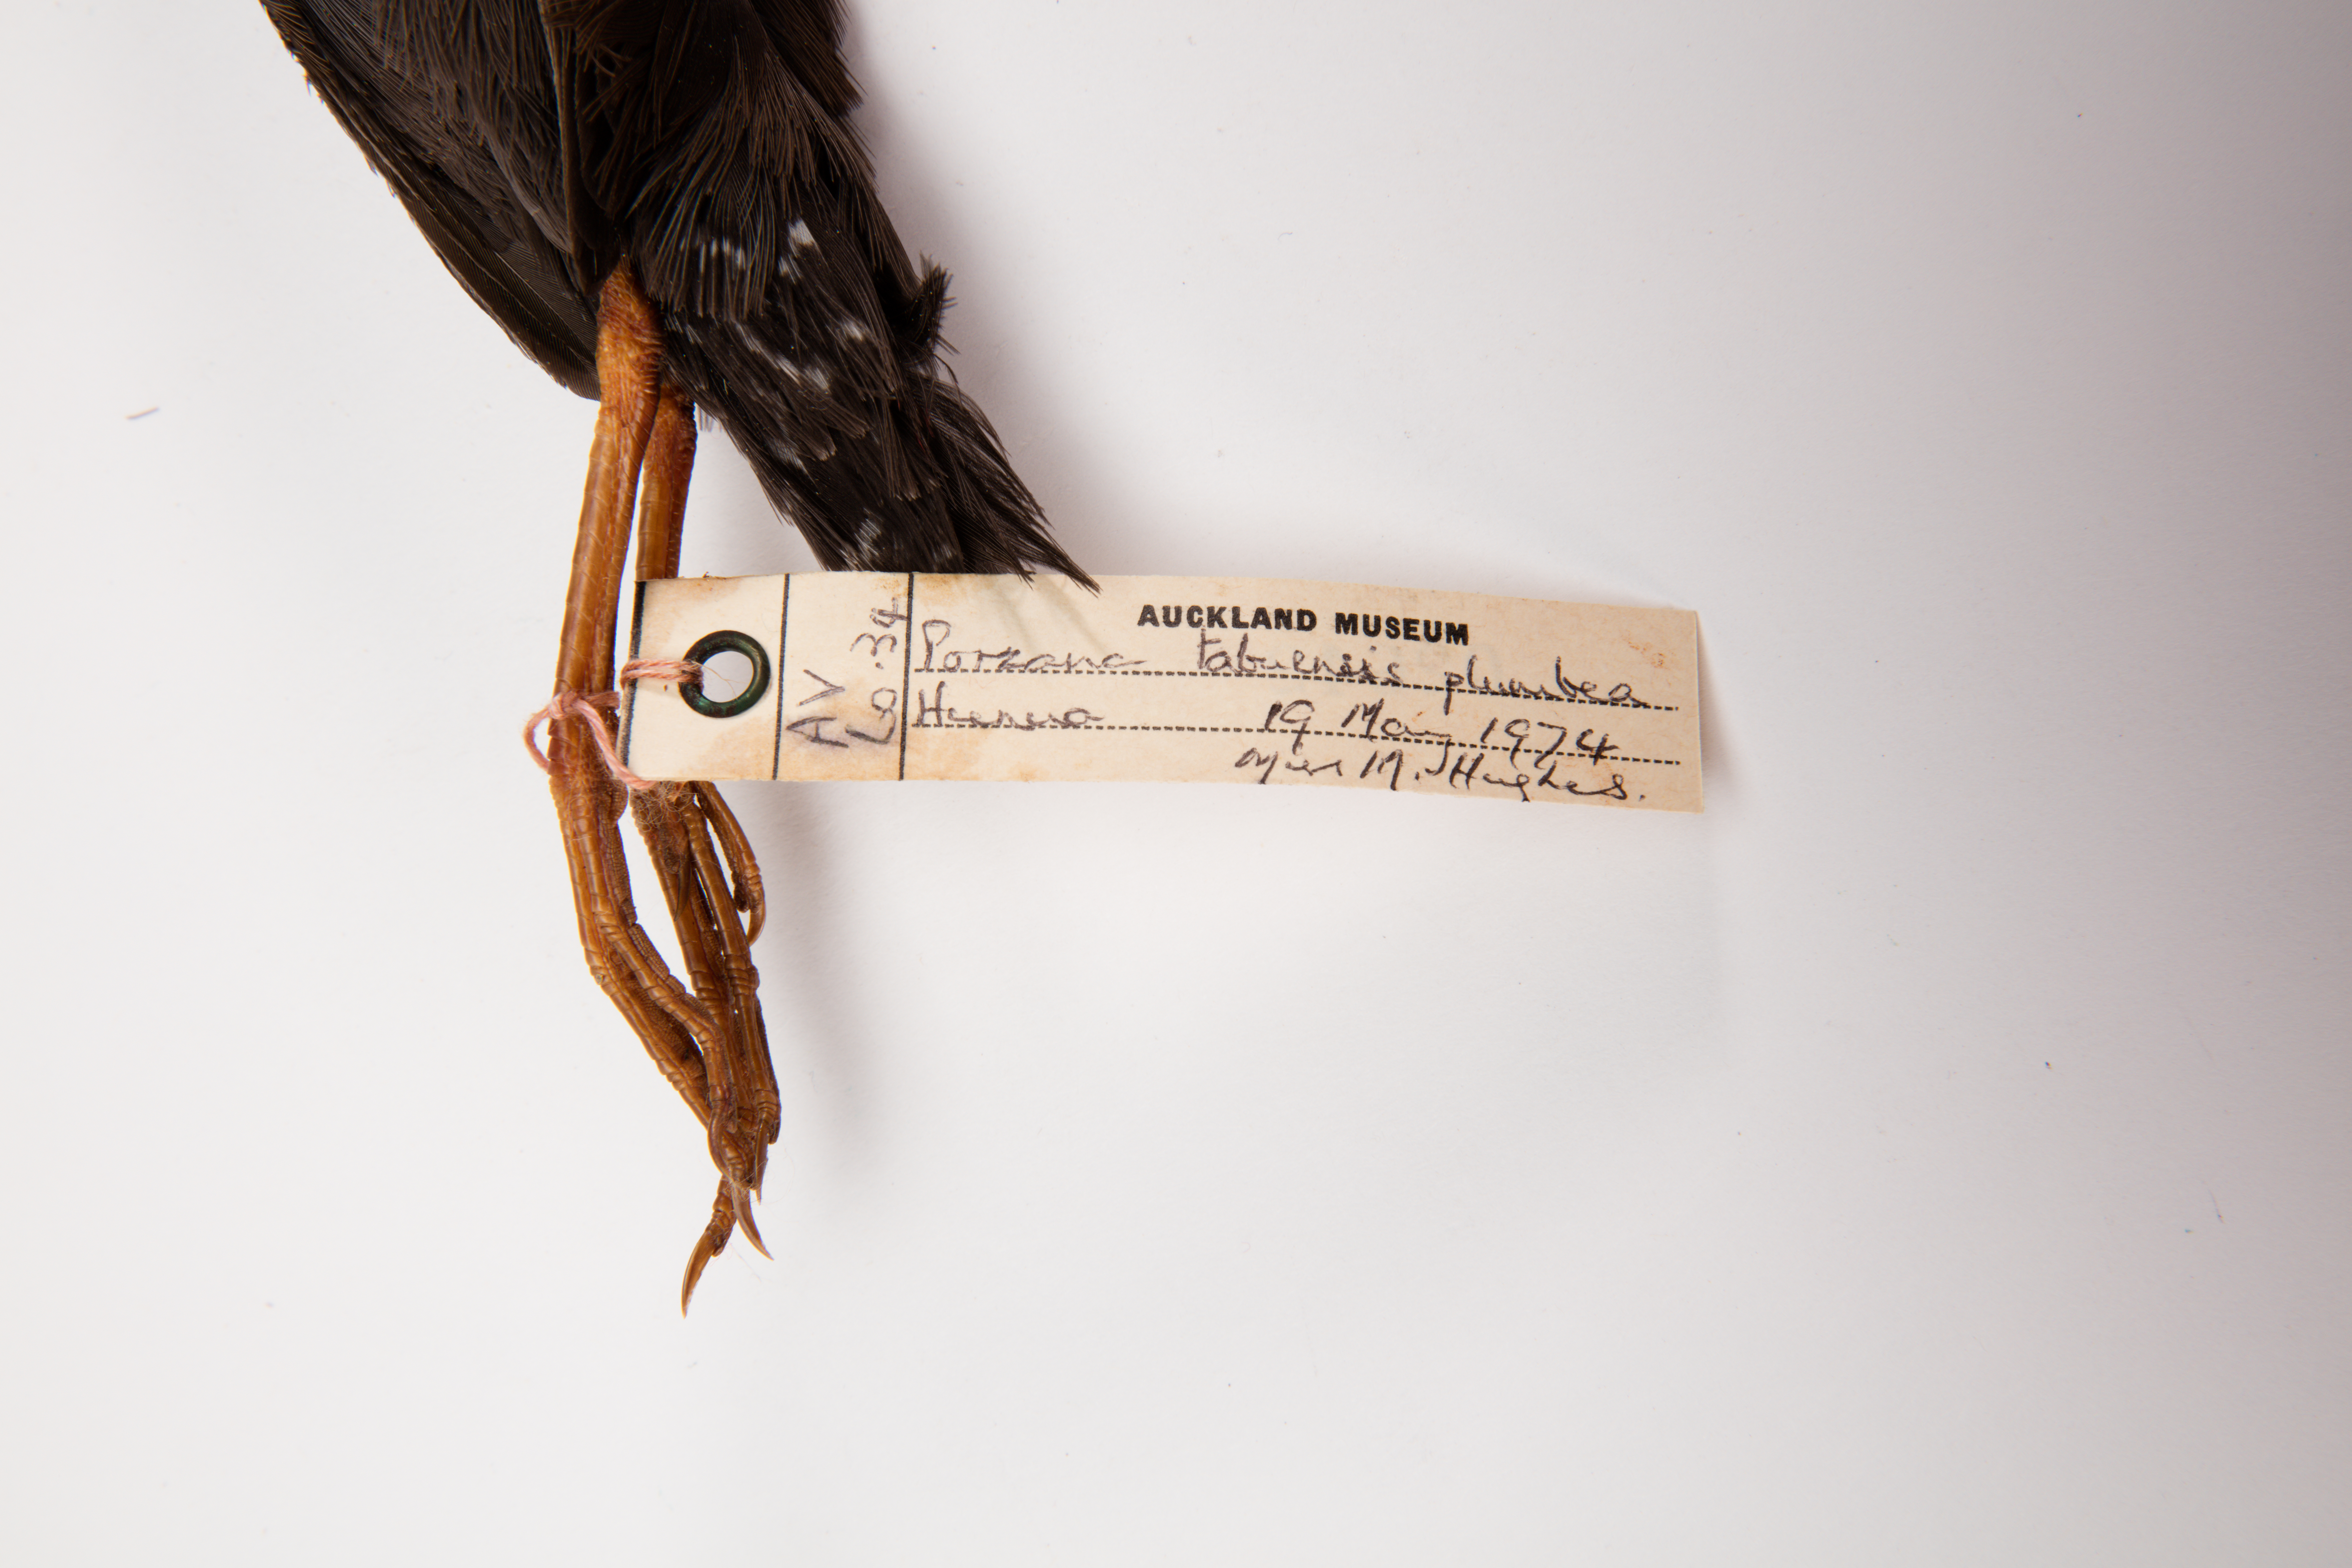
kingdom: Animalia
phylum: Chordata
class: Aves
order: Gruiformes
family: Rallidae
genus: Porzana
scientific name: Porzana tabuensis
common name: Spotless crake
